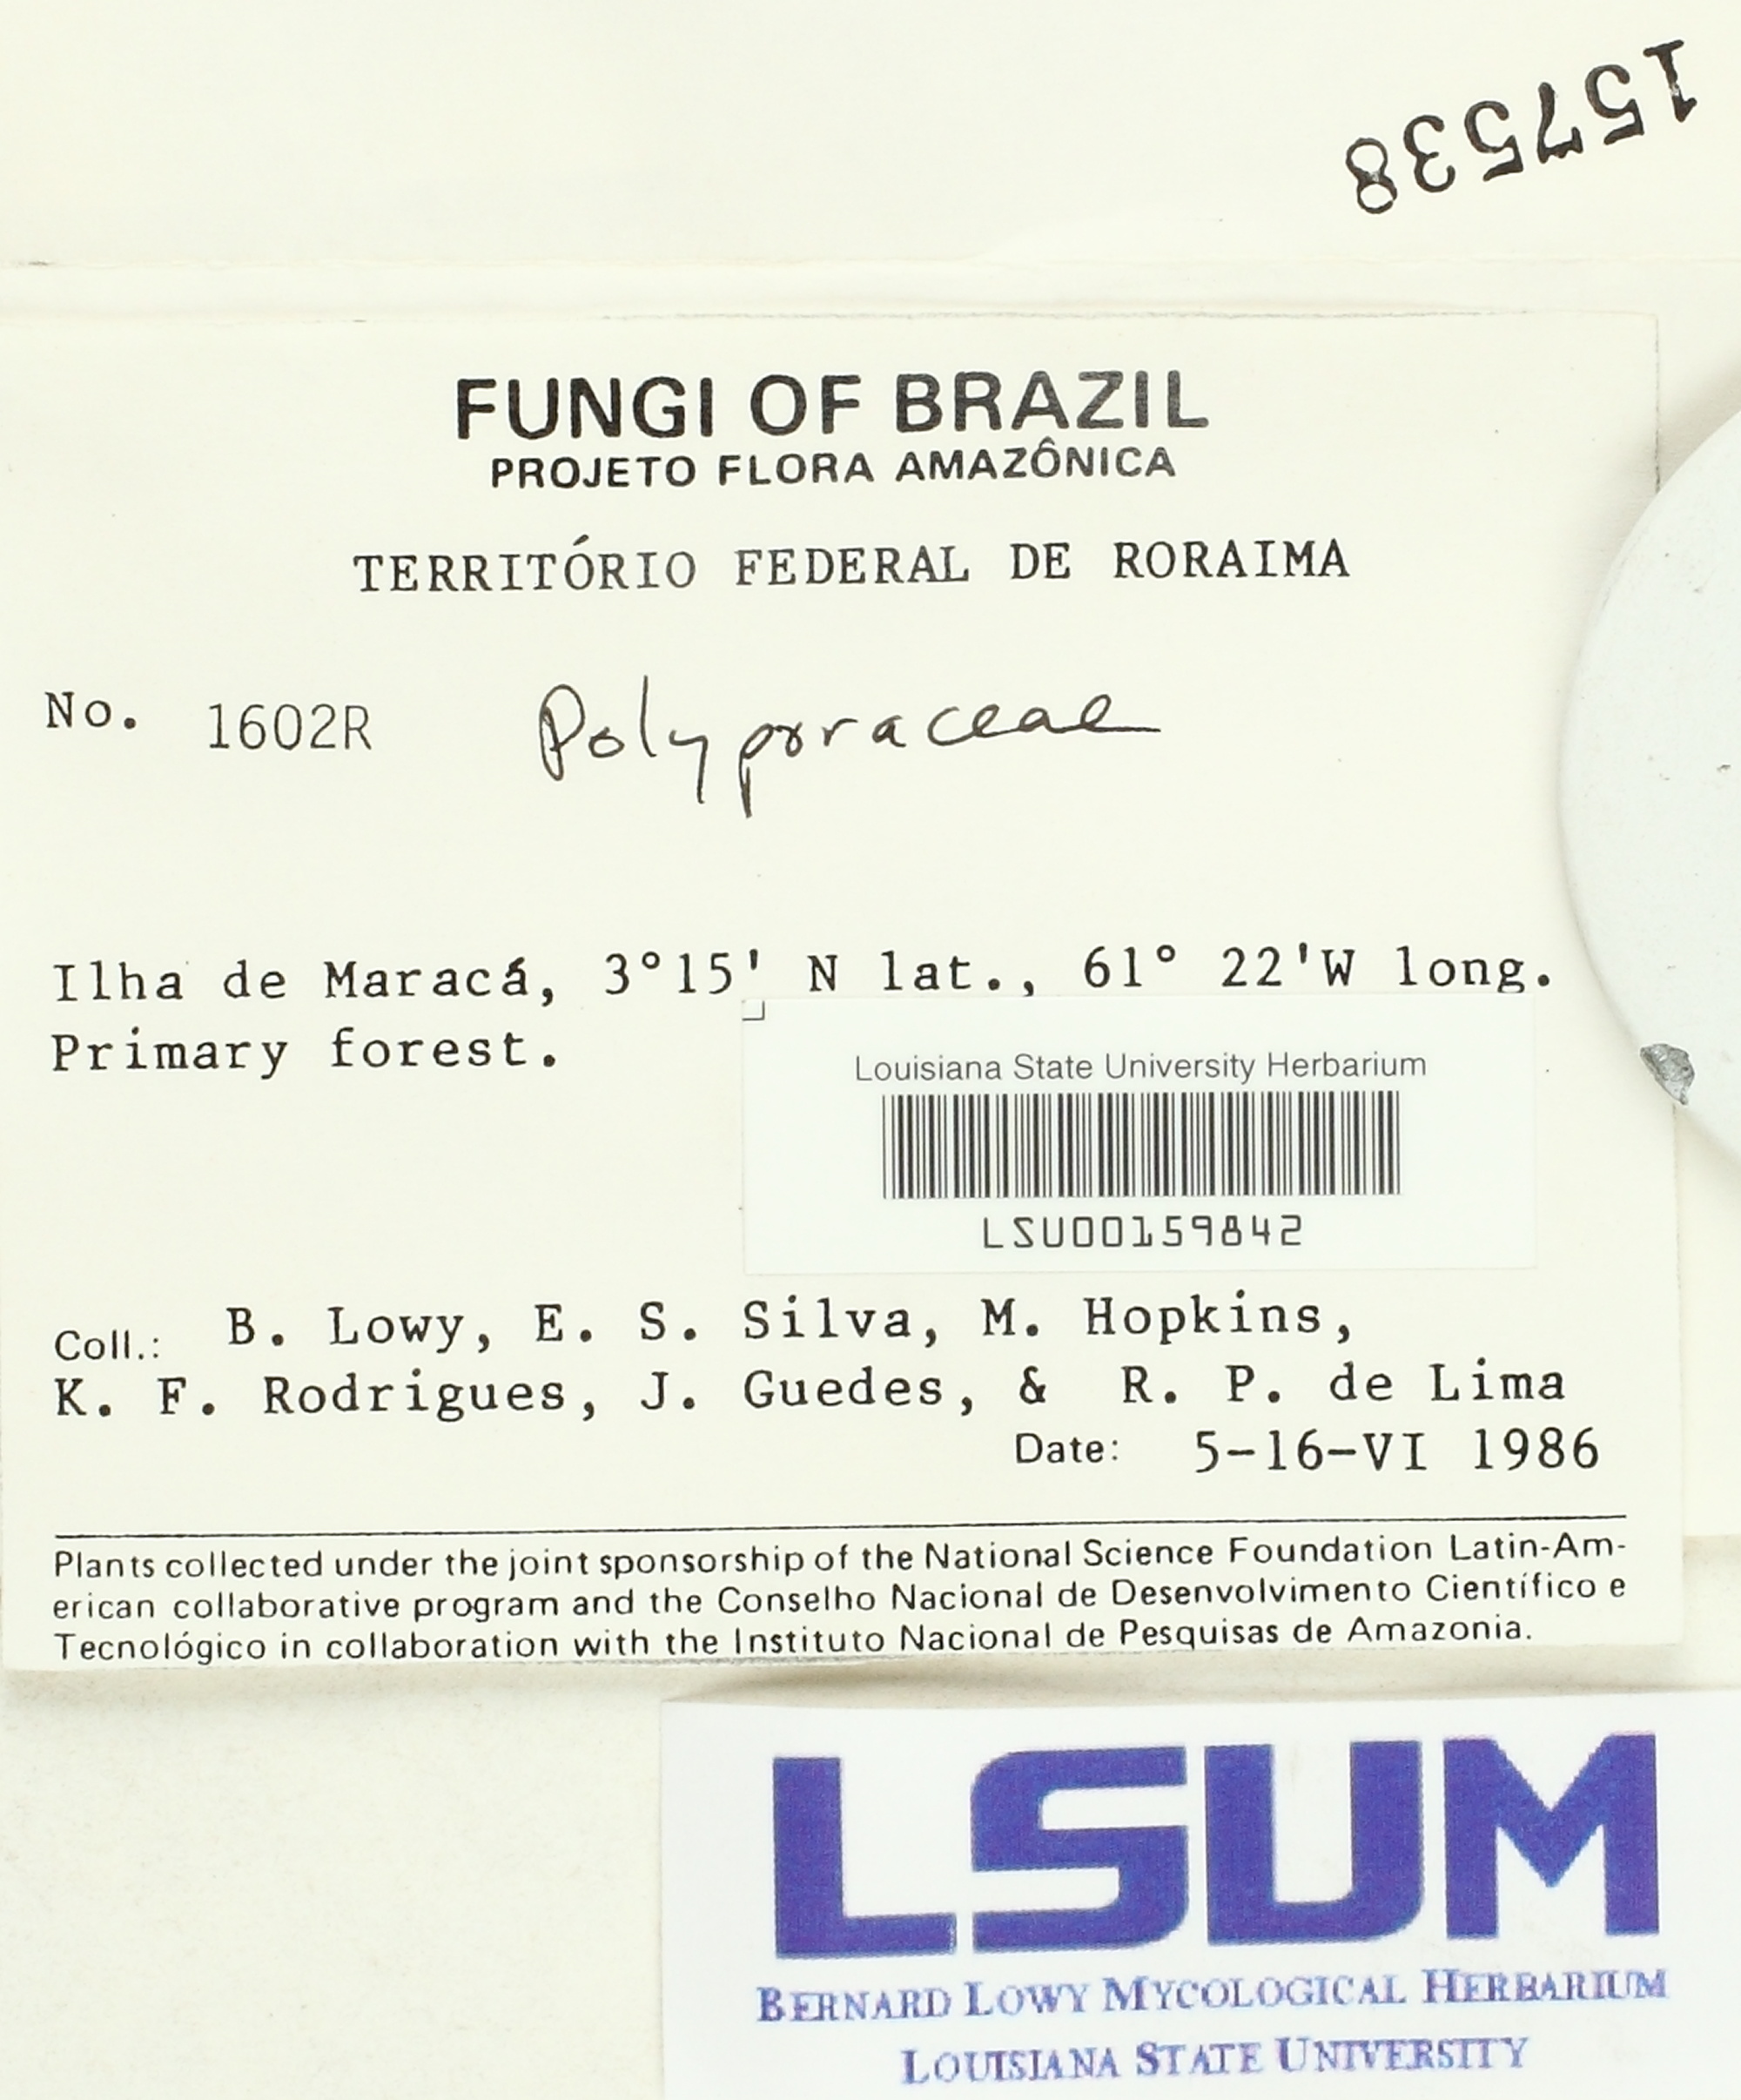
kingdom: Fungi
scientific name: Fungi
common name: Fungi
